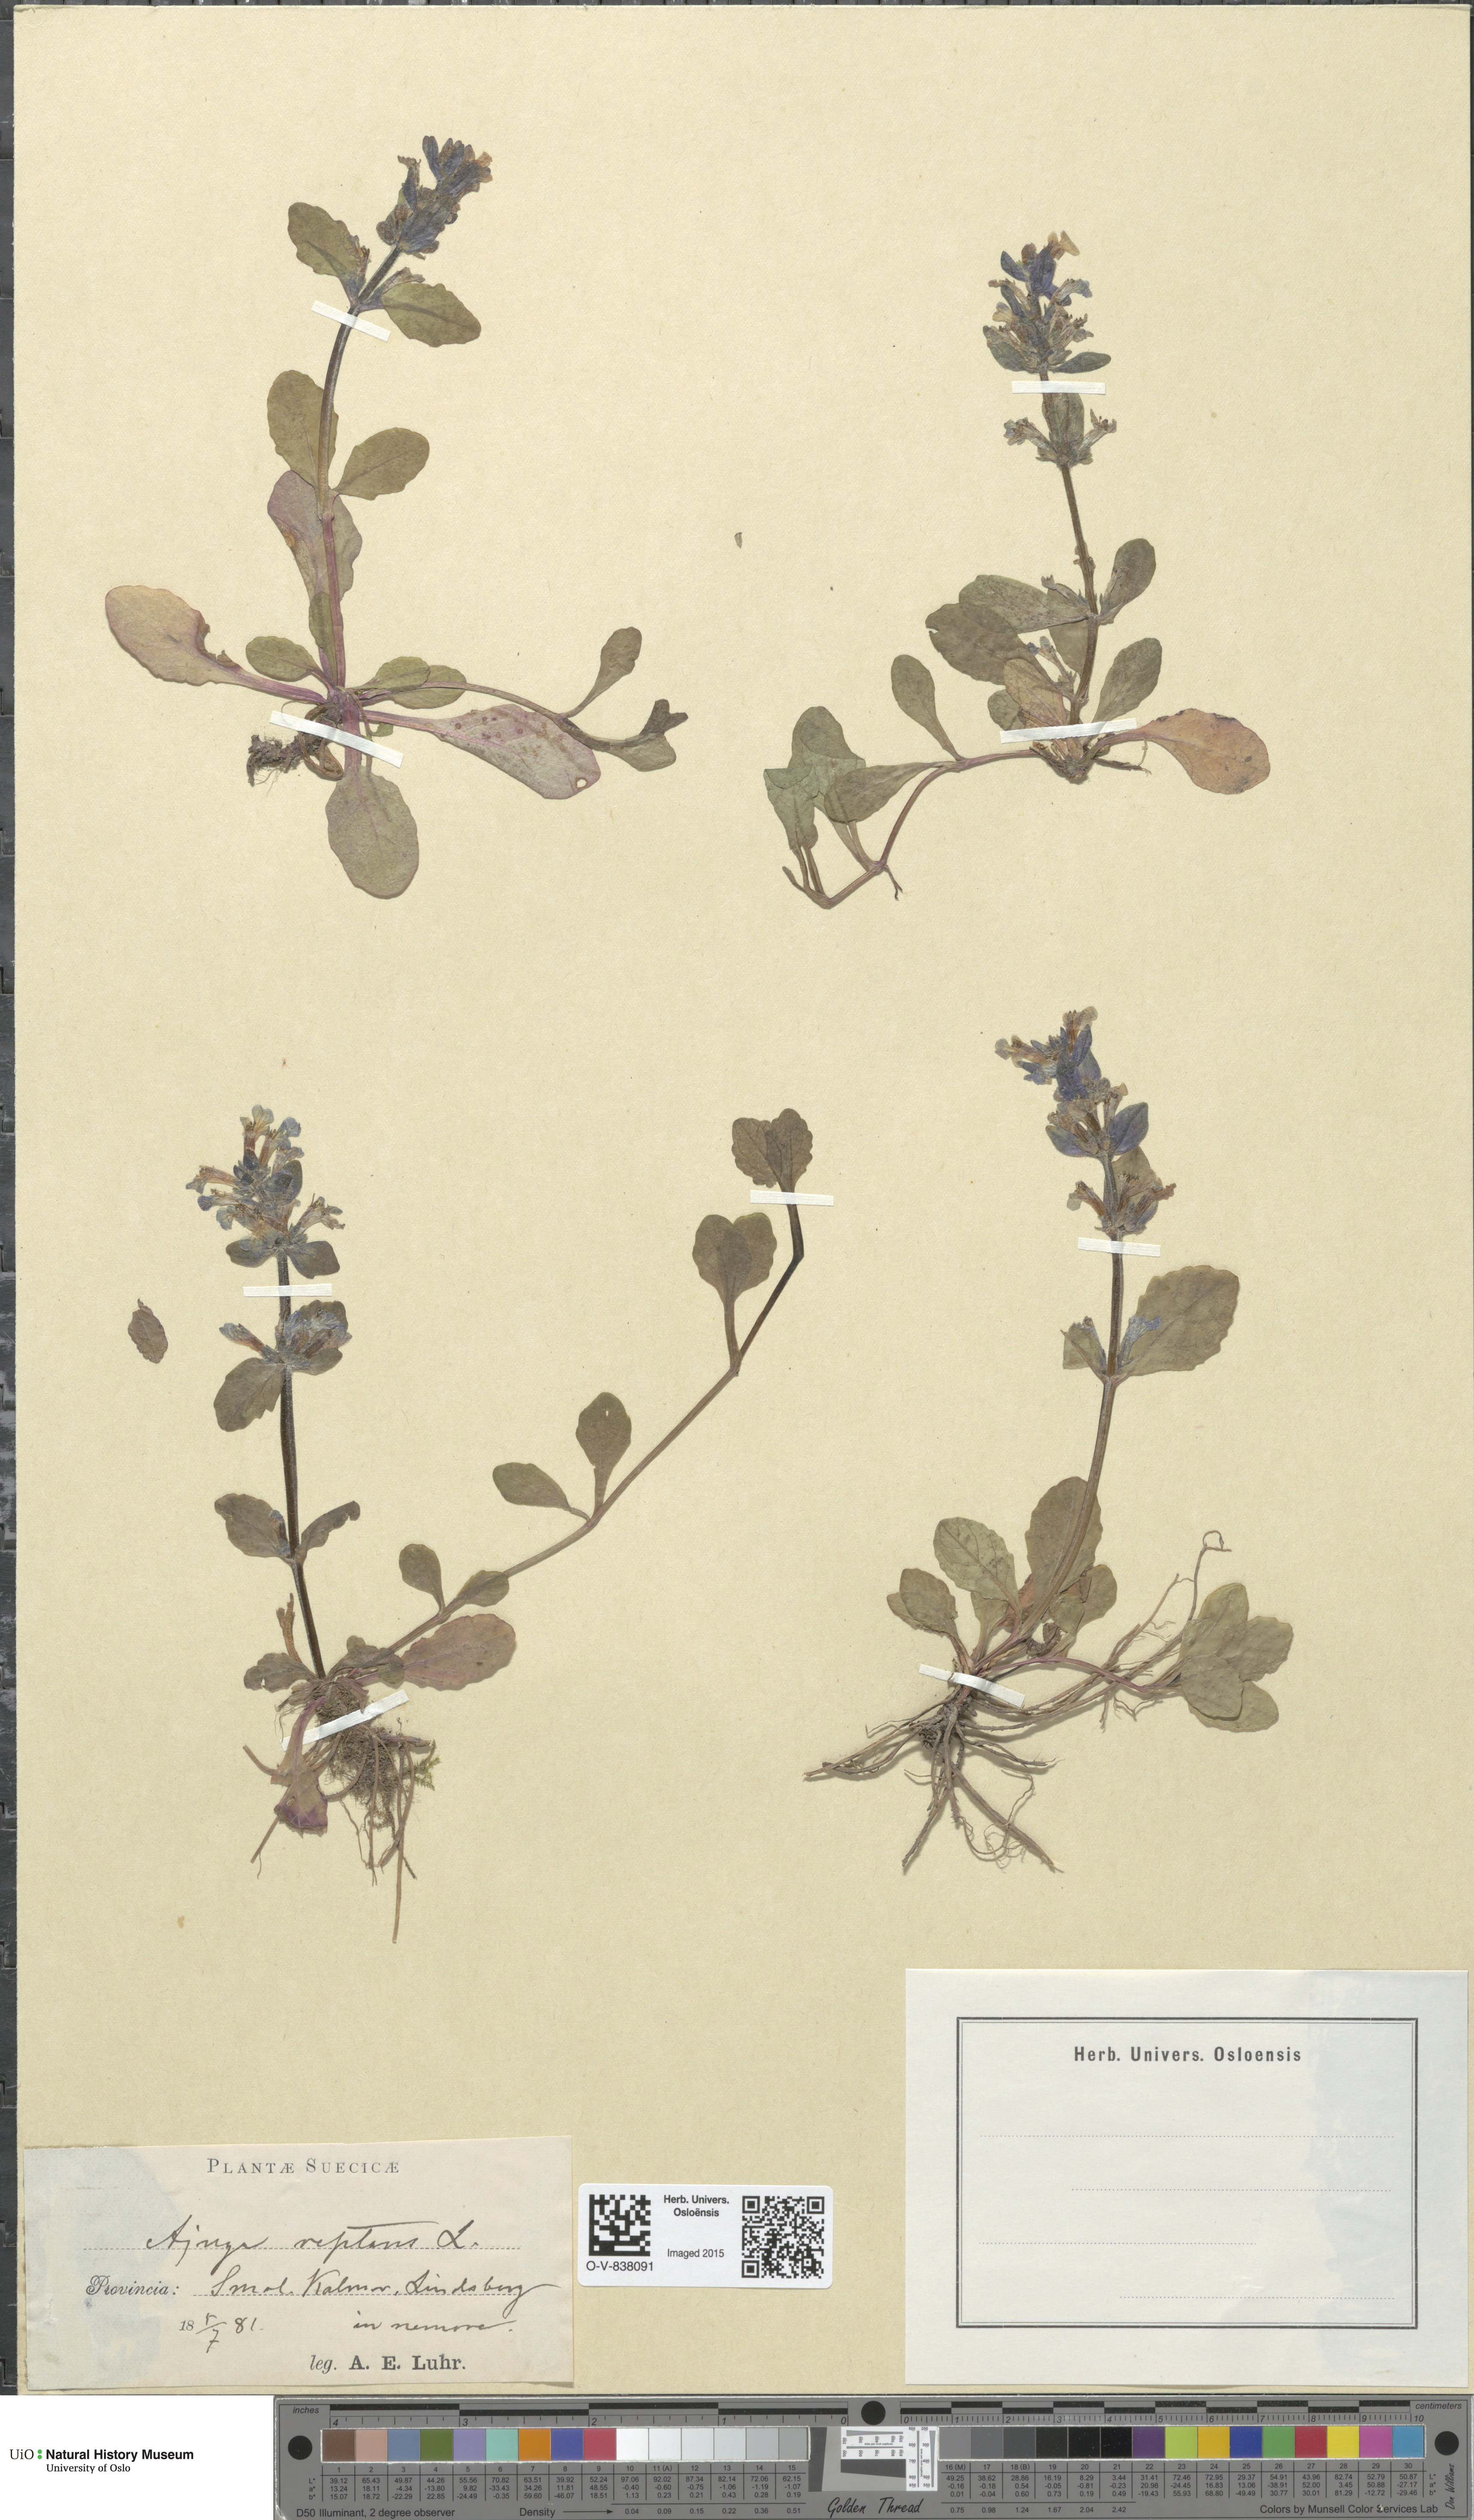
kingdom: Plantae
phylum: Tracheophyta
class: Magnoliopsida
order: Lamiales
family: Lamiaceae
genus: Ajuga
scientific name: Ajuga reptans
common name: Bugle
